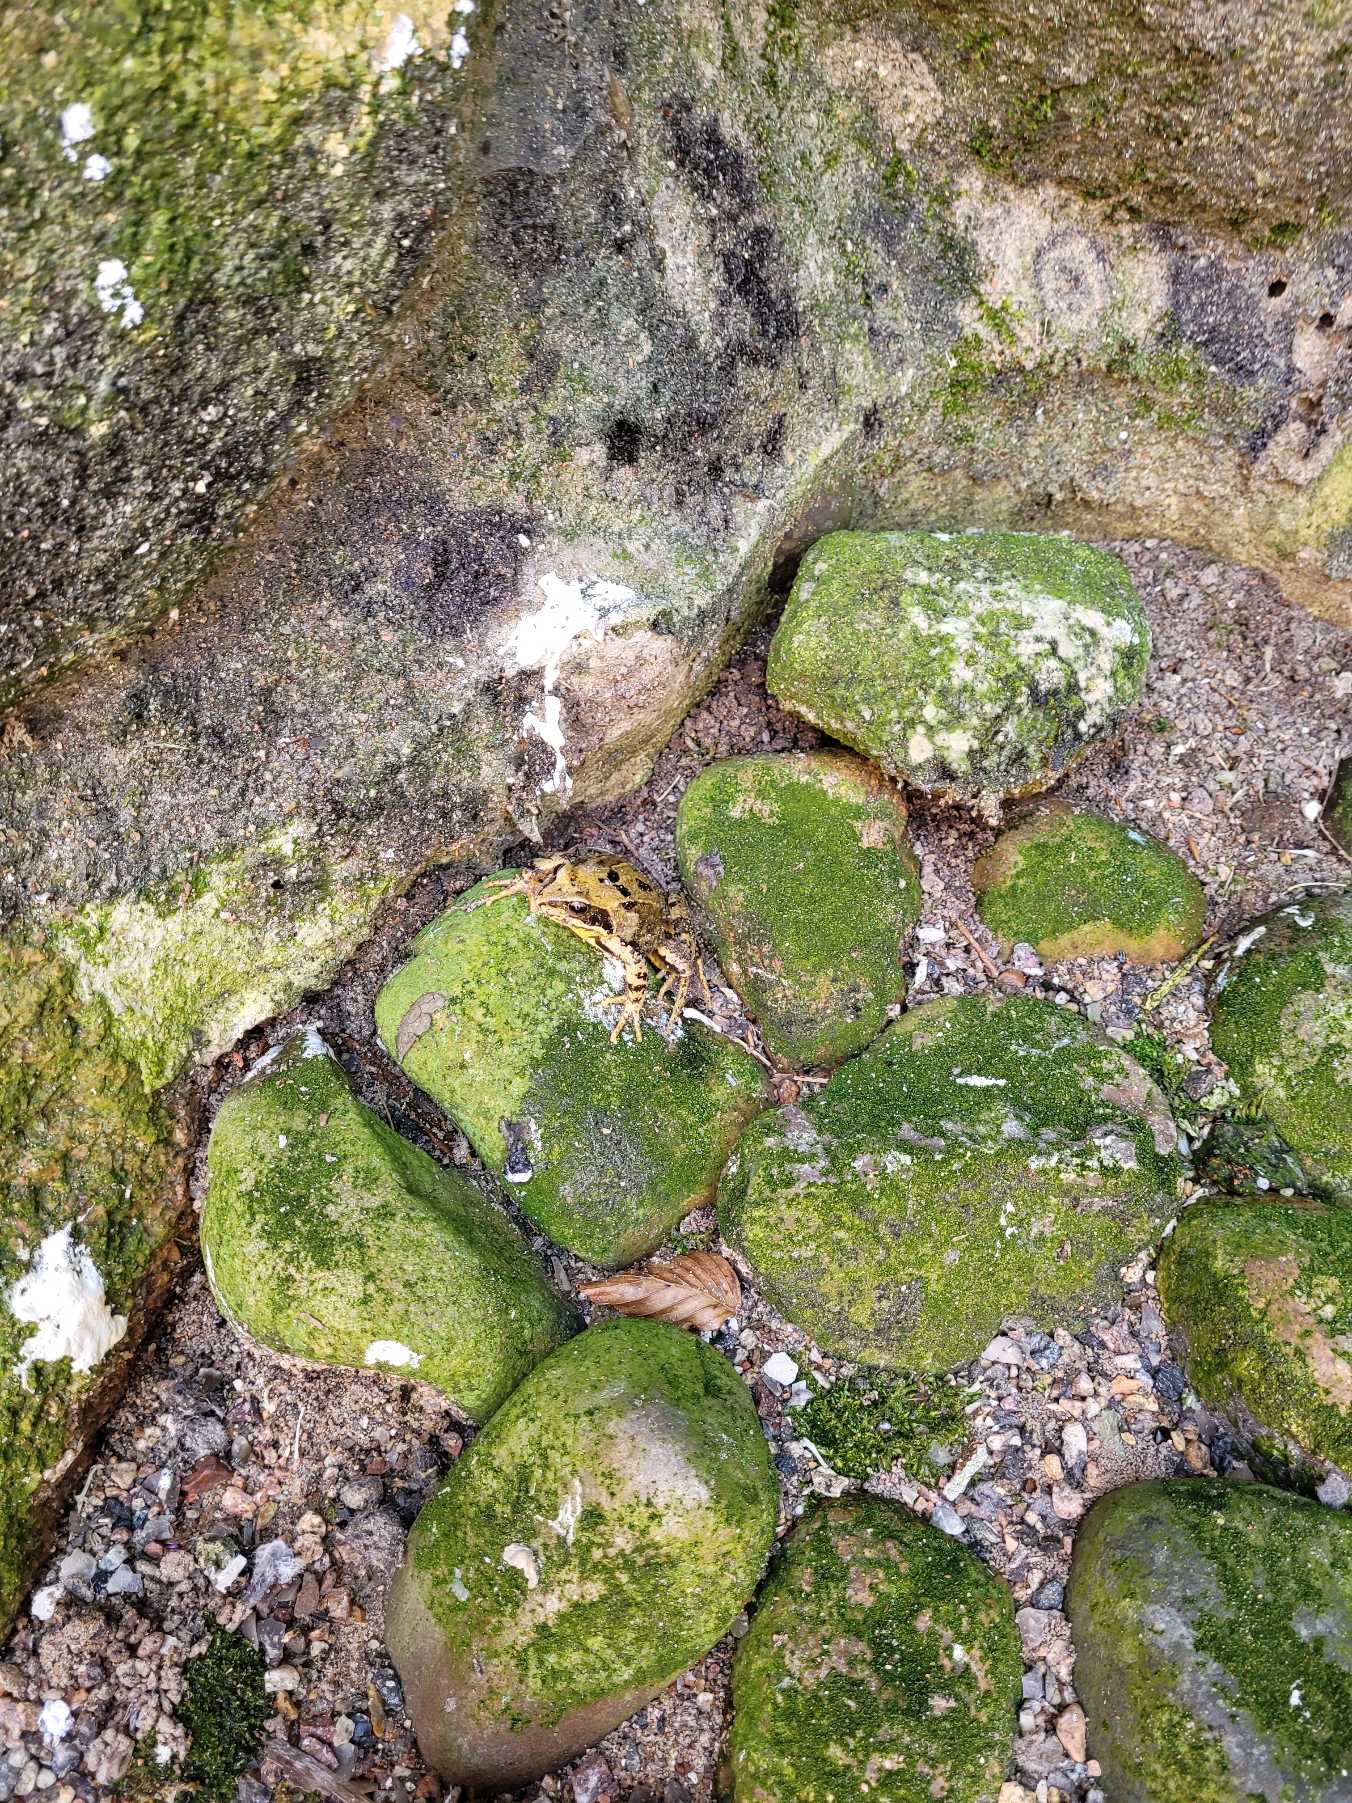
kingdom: Animalia
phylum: Chordata
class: Amphibia
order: Anura
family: Ranidae
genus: Rana
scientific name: Rana temporaria
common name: Butsnudet frø
